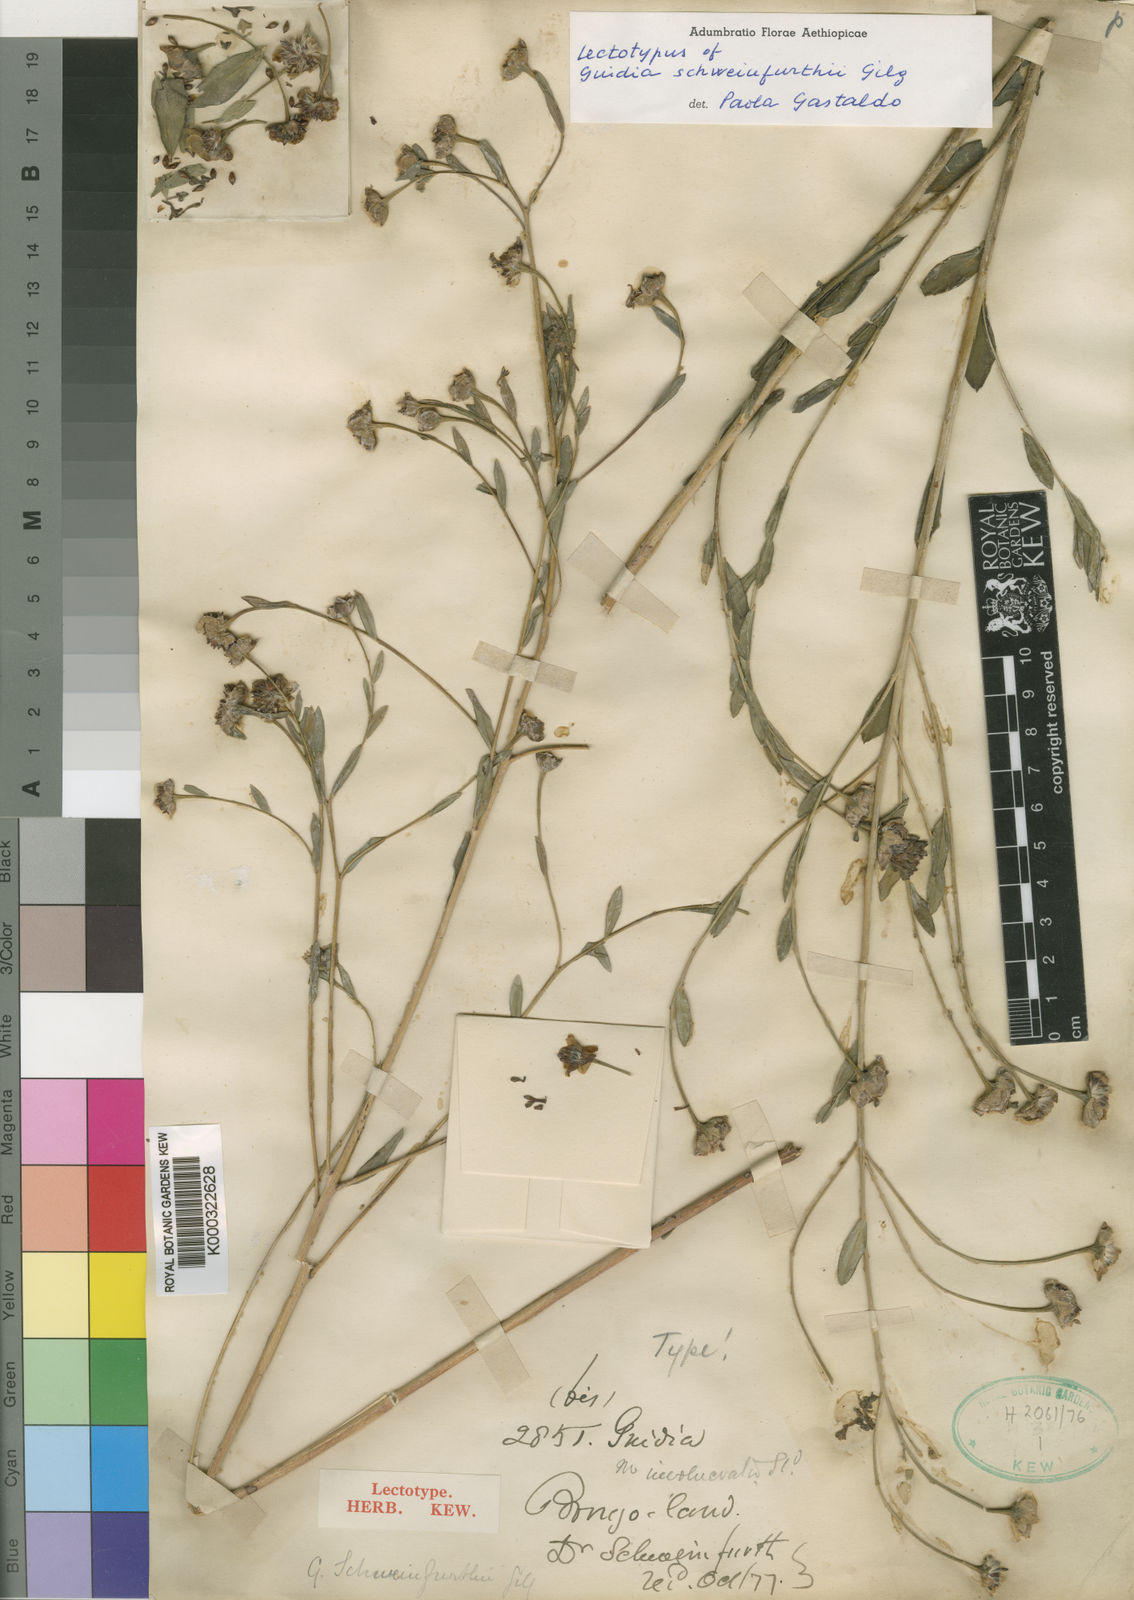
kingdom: Plantae
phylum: Tracheophyta
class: Magnoliopsida
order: Malvales
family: Thymelaeaceae
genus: Gnidia
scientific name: Gnidia involucrata
